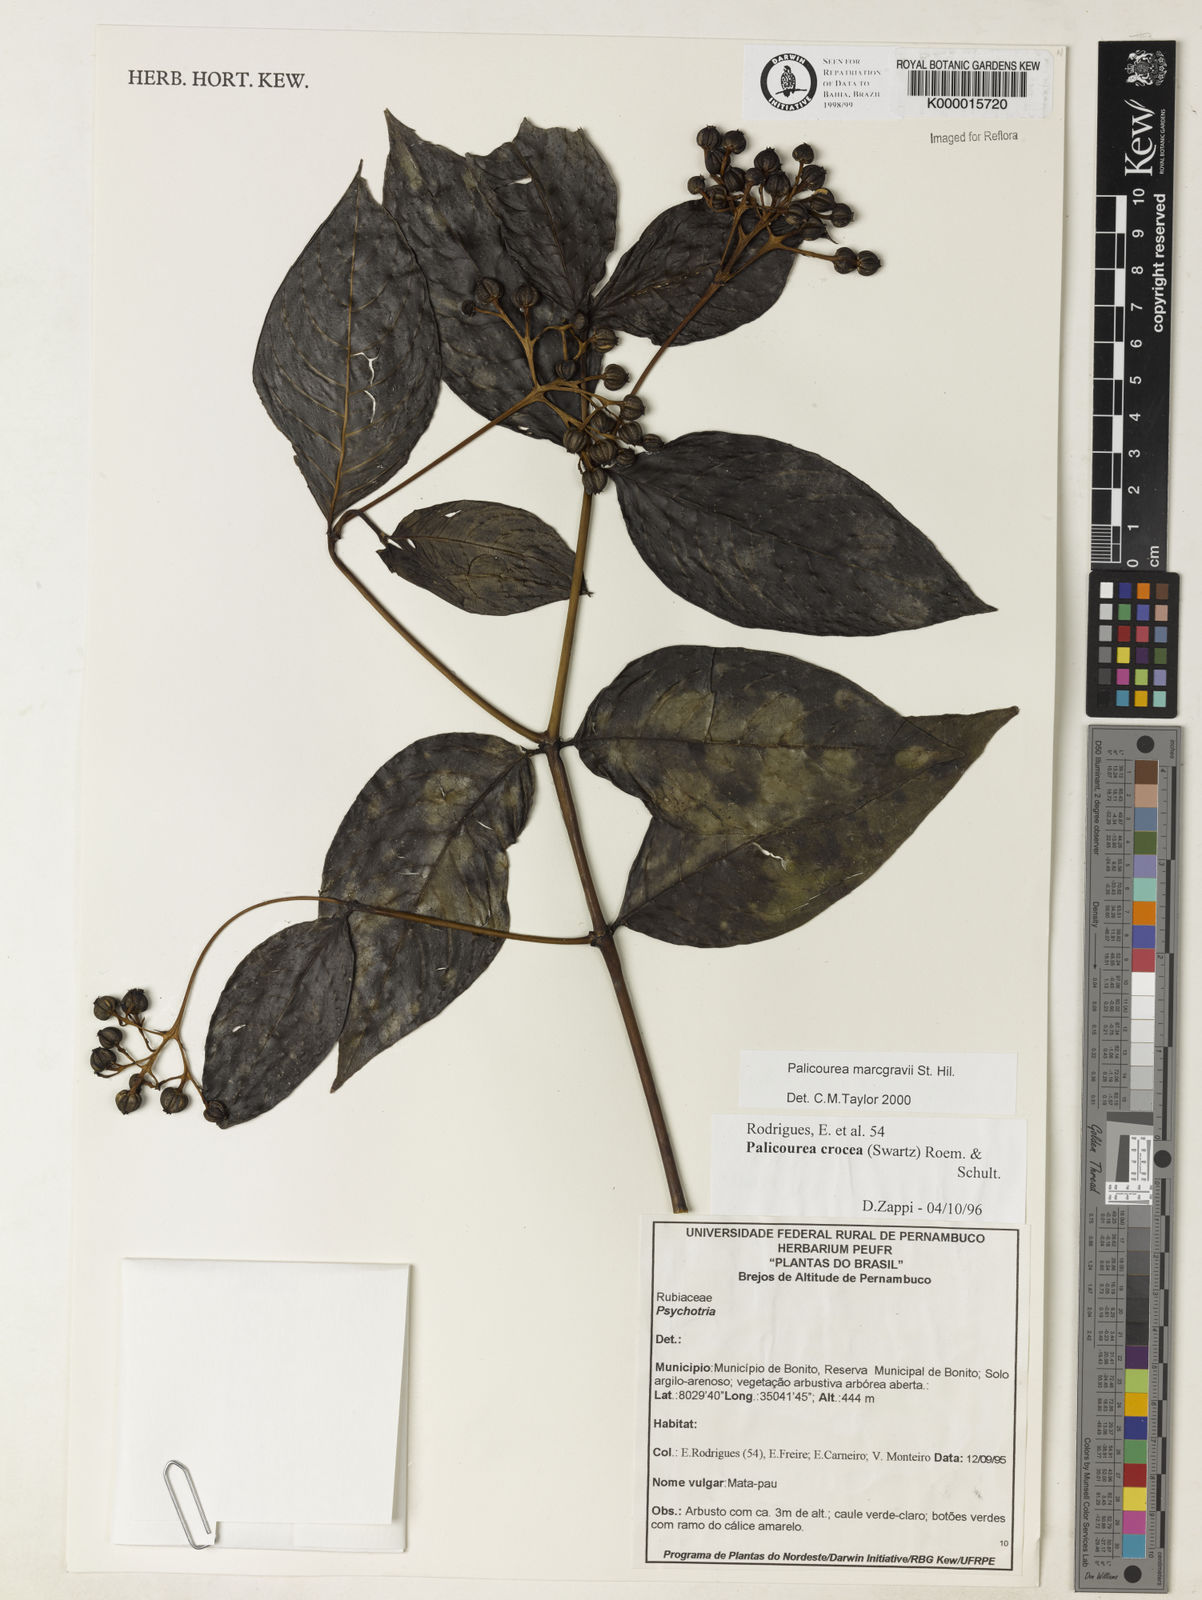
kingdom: Plantae
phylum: Tracheophyta
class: Magnoliopsida
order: Gentianales
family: Rubiaceae
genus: Palicourea
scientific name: Palicourea marcgravii
